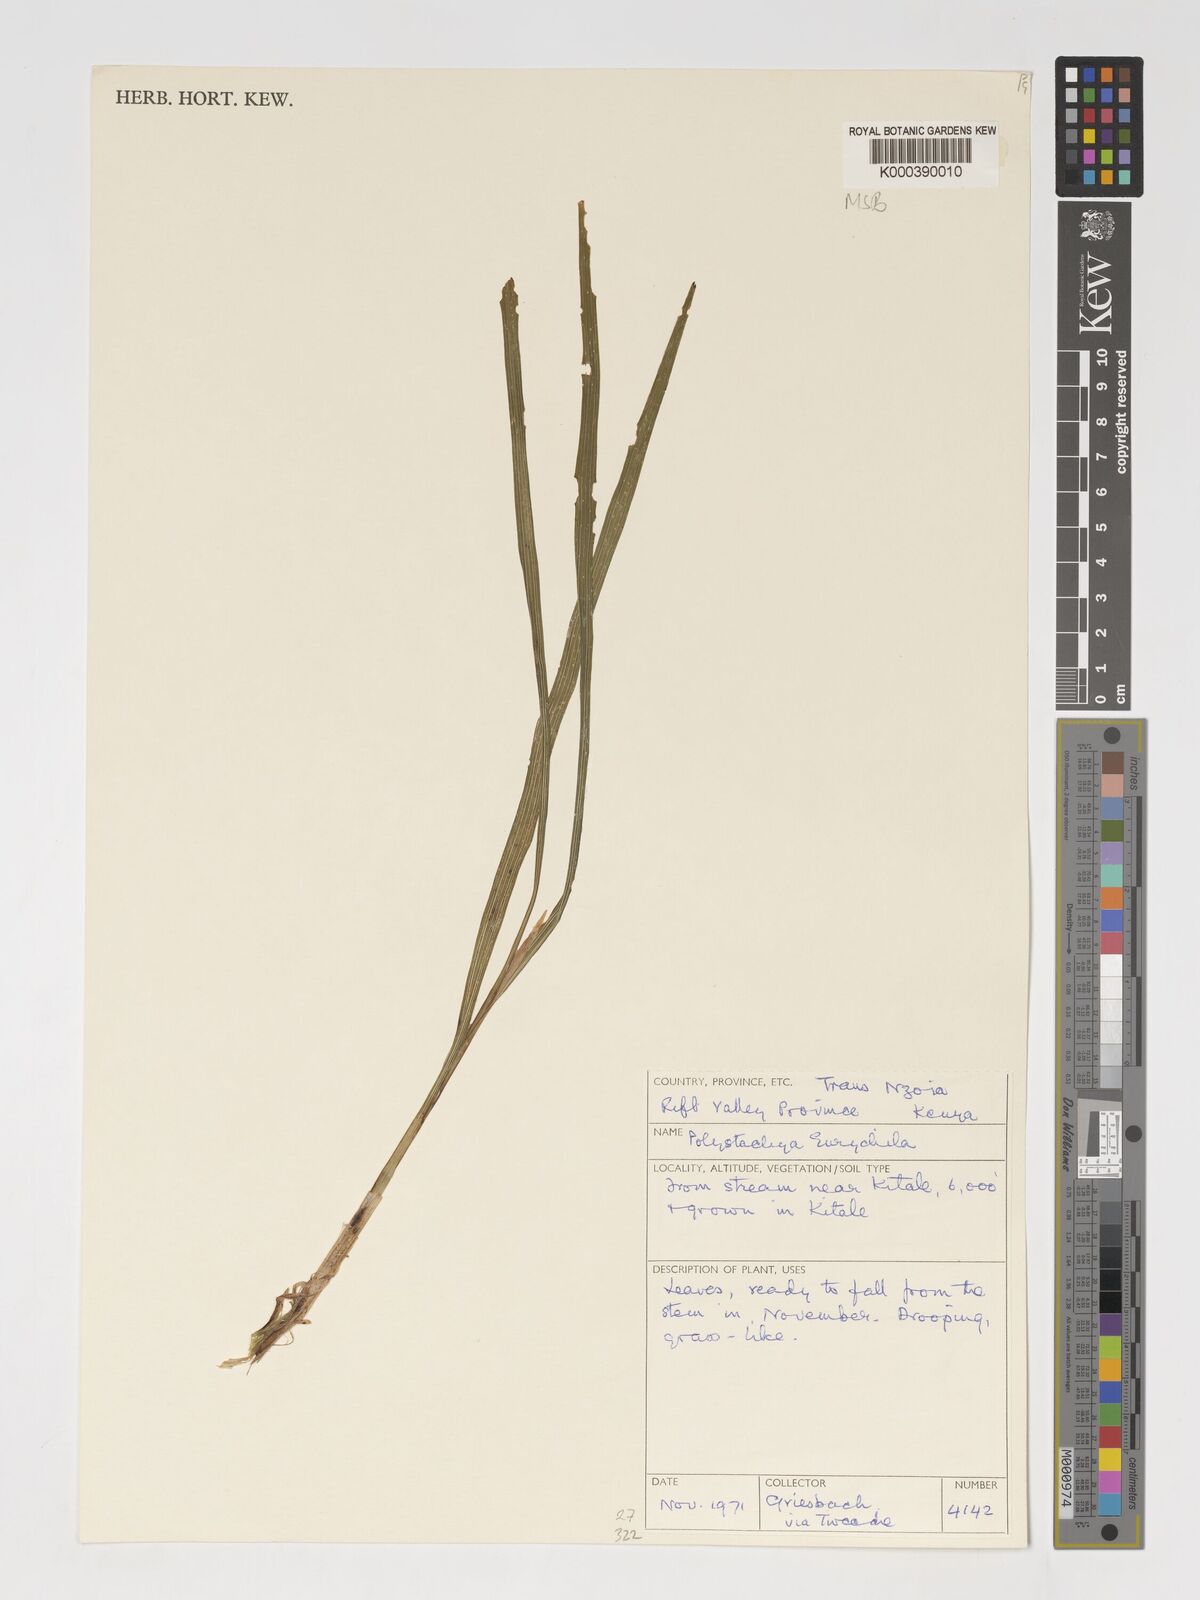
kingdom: Plantae
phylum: Tracheophyta
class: Liliopsida
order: Asparagales
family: Orchidaceae
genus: Polystachya
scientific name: Polystachya eurychila
